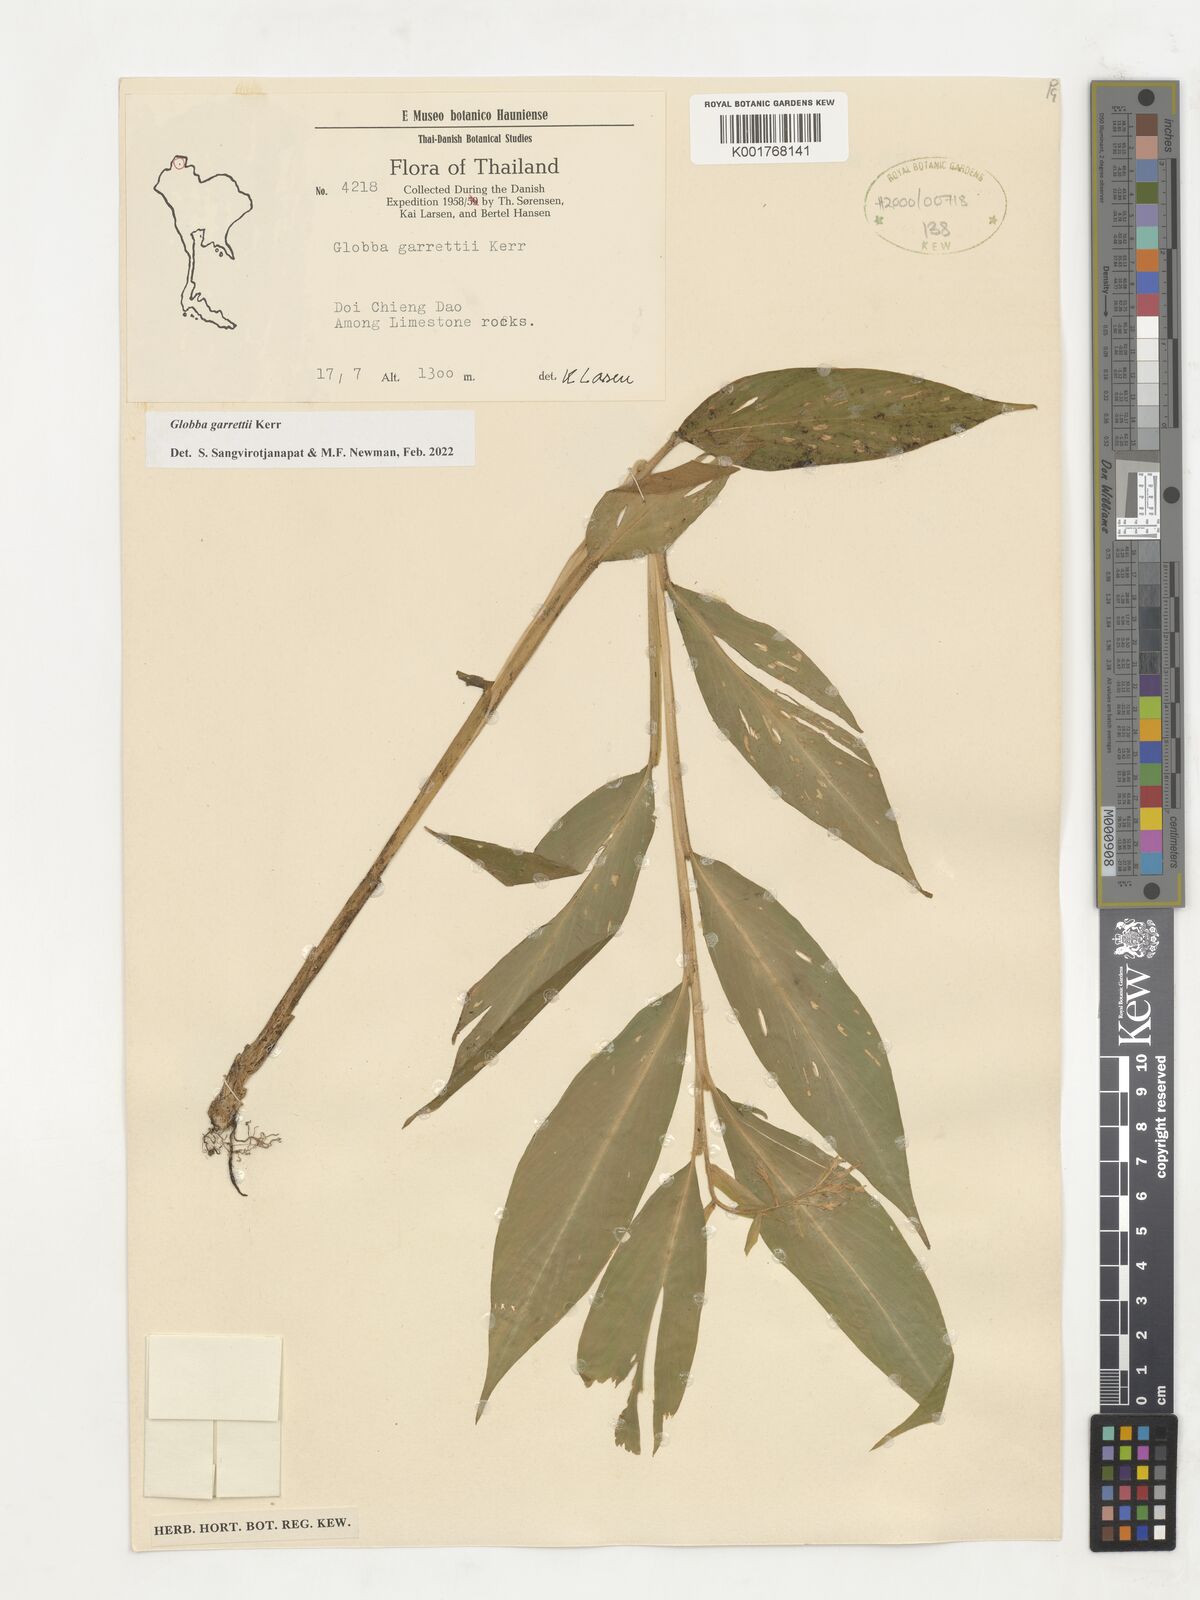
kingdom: Plantae
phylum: Tracheophyta
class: Liliopsida
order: Zingiberales
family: Zingiberaceae
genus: Globba
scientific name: Globba garrettii
